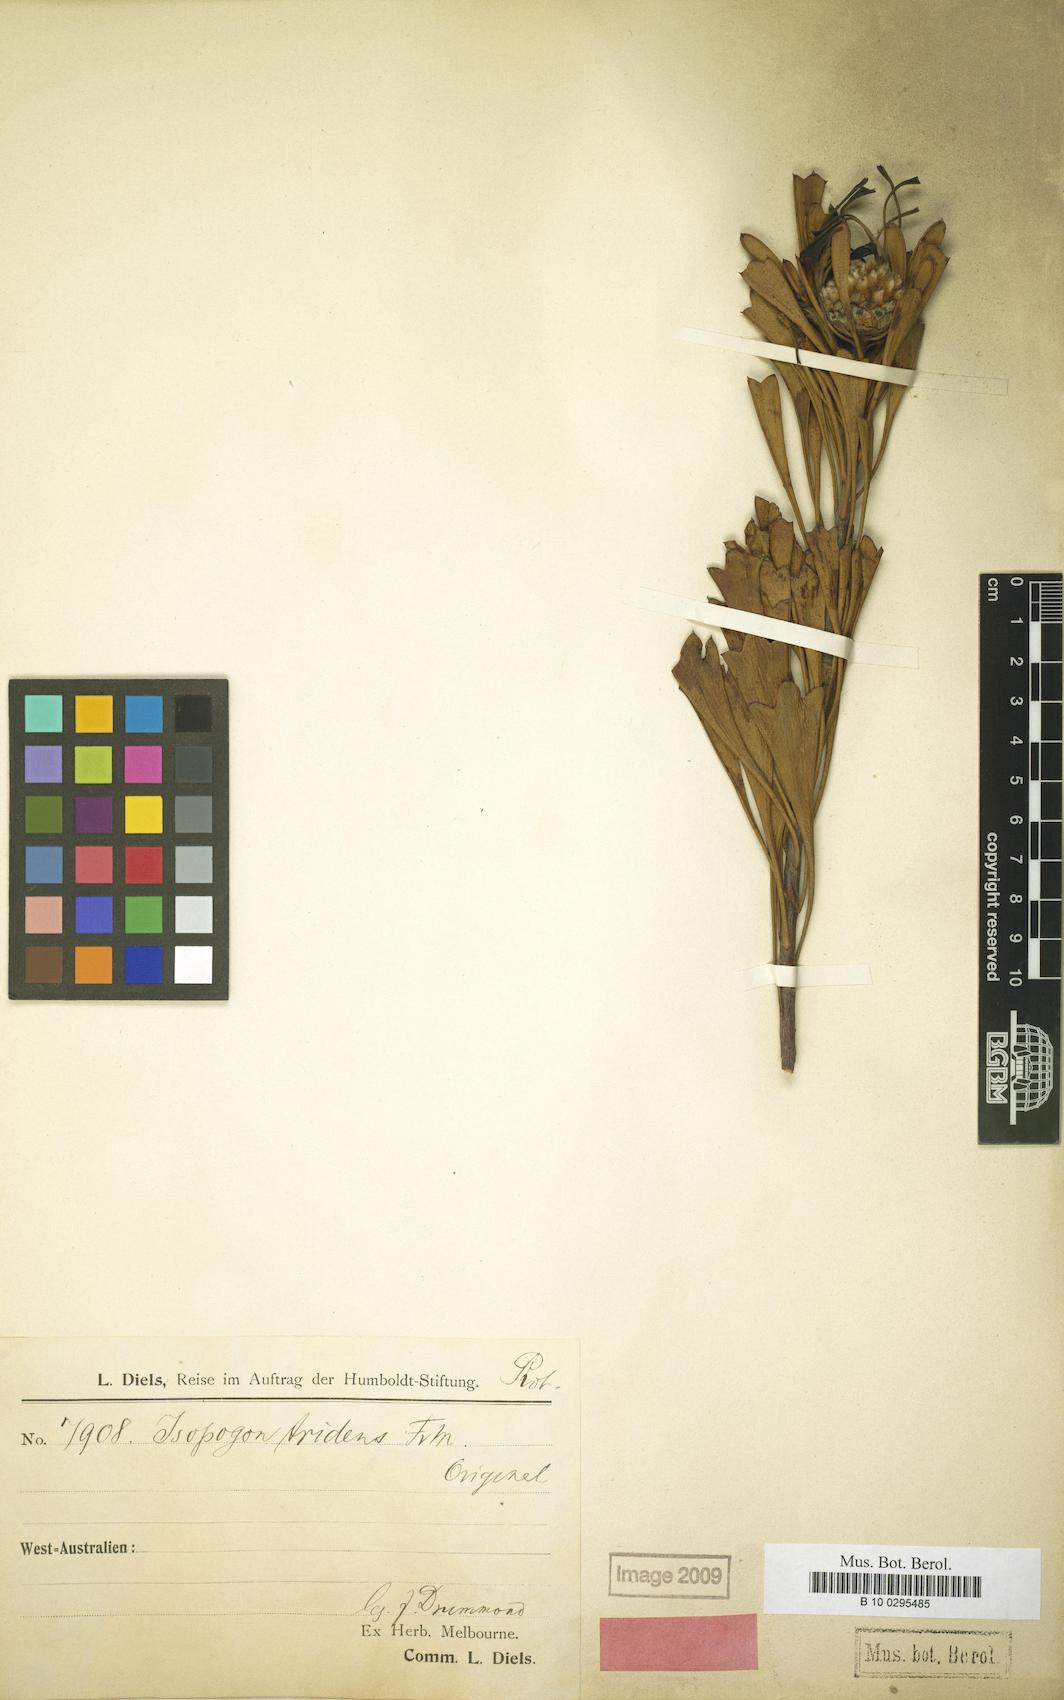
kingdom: Plantae
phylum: Tracheophyta
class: Magnoliopsida
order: Proteales
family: Proteaceae
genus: Isopogon
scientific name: Isopogon tridens
